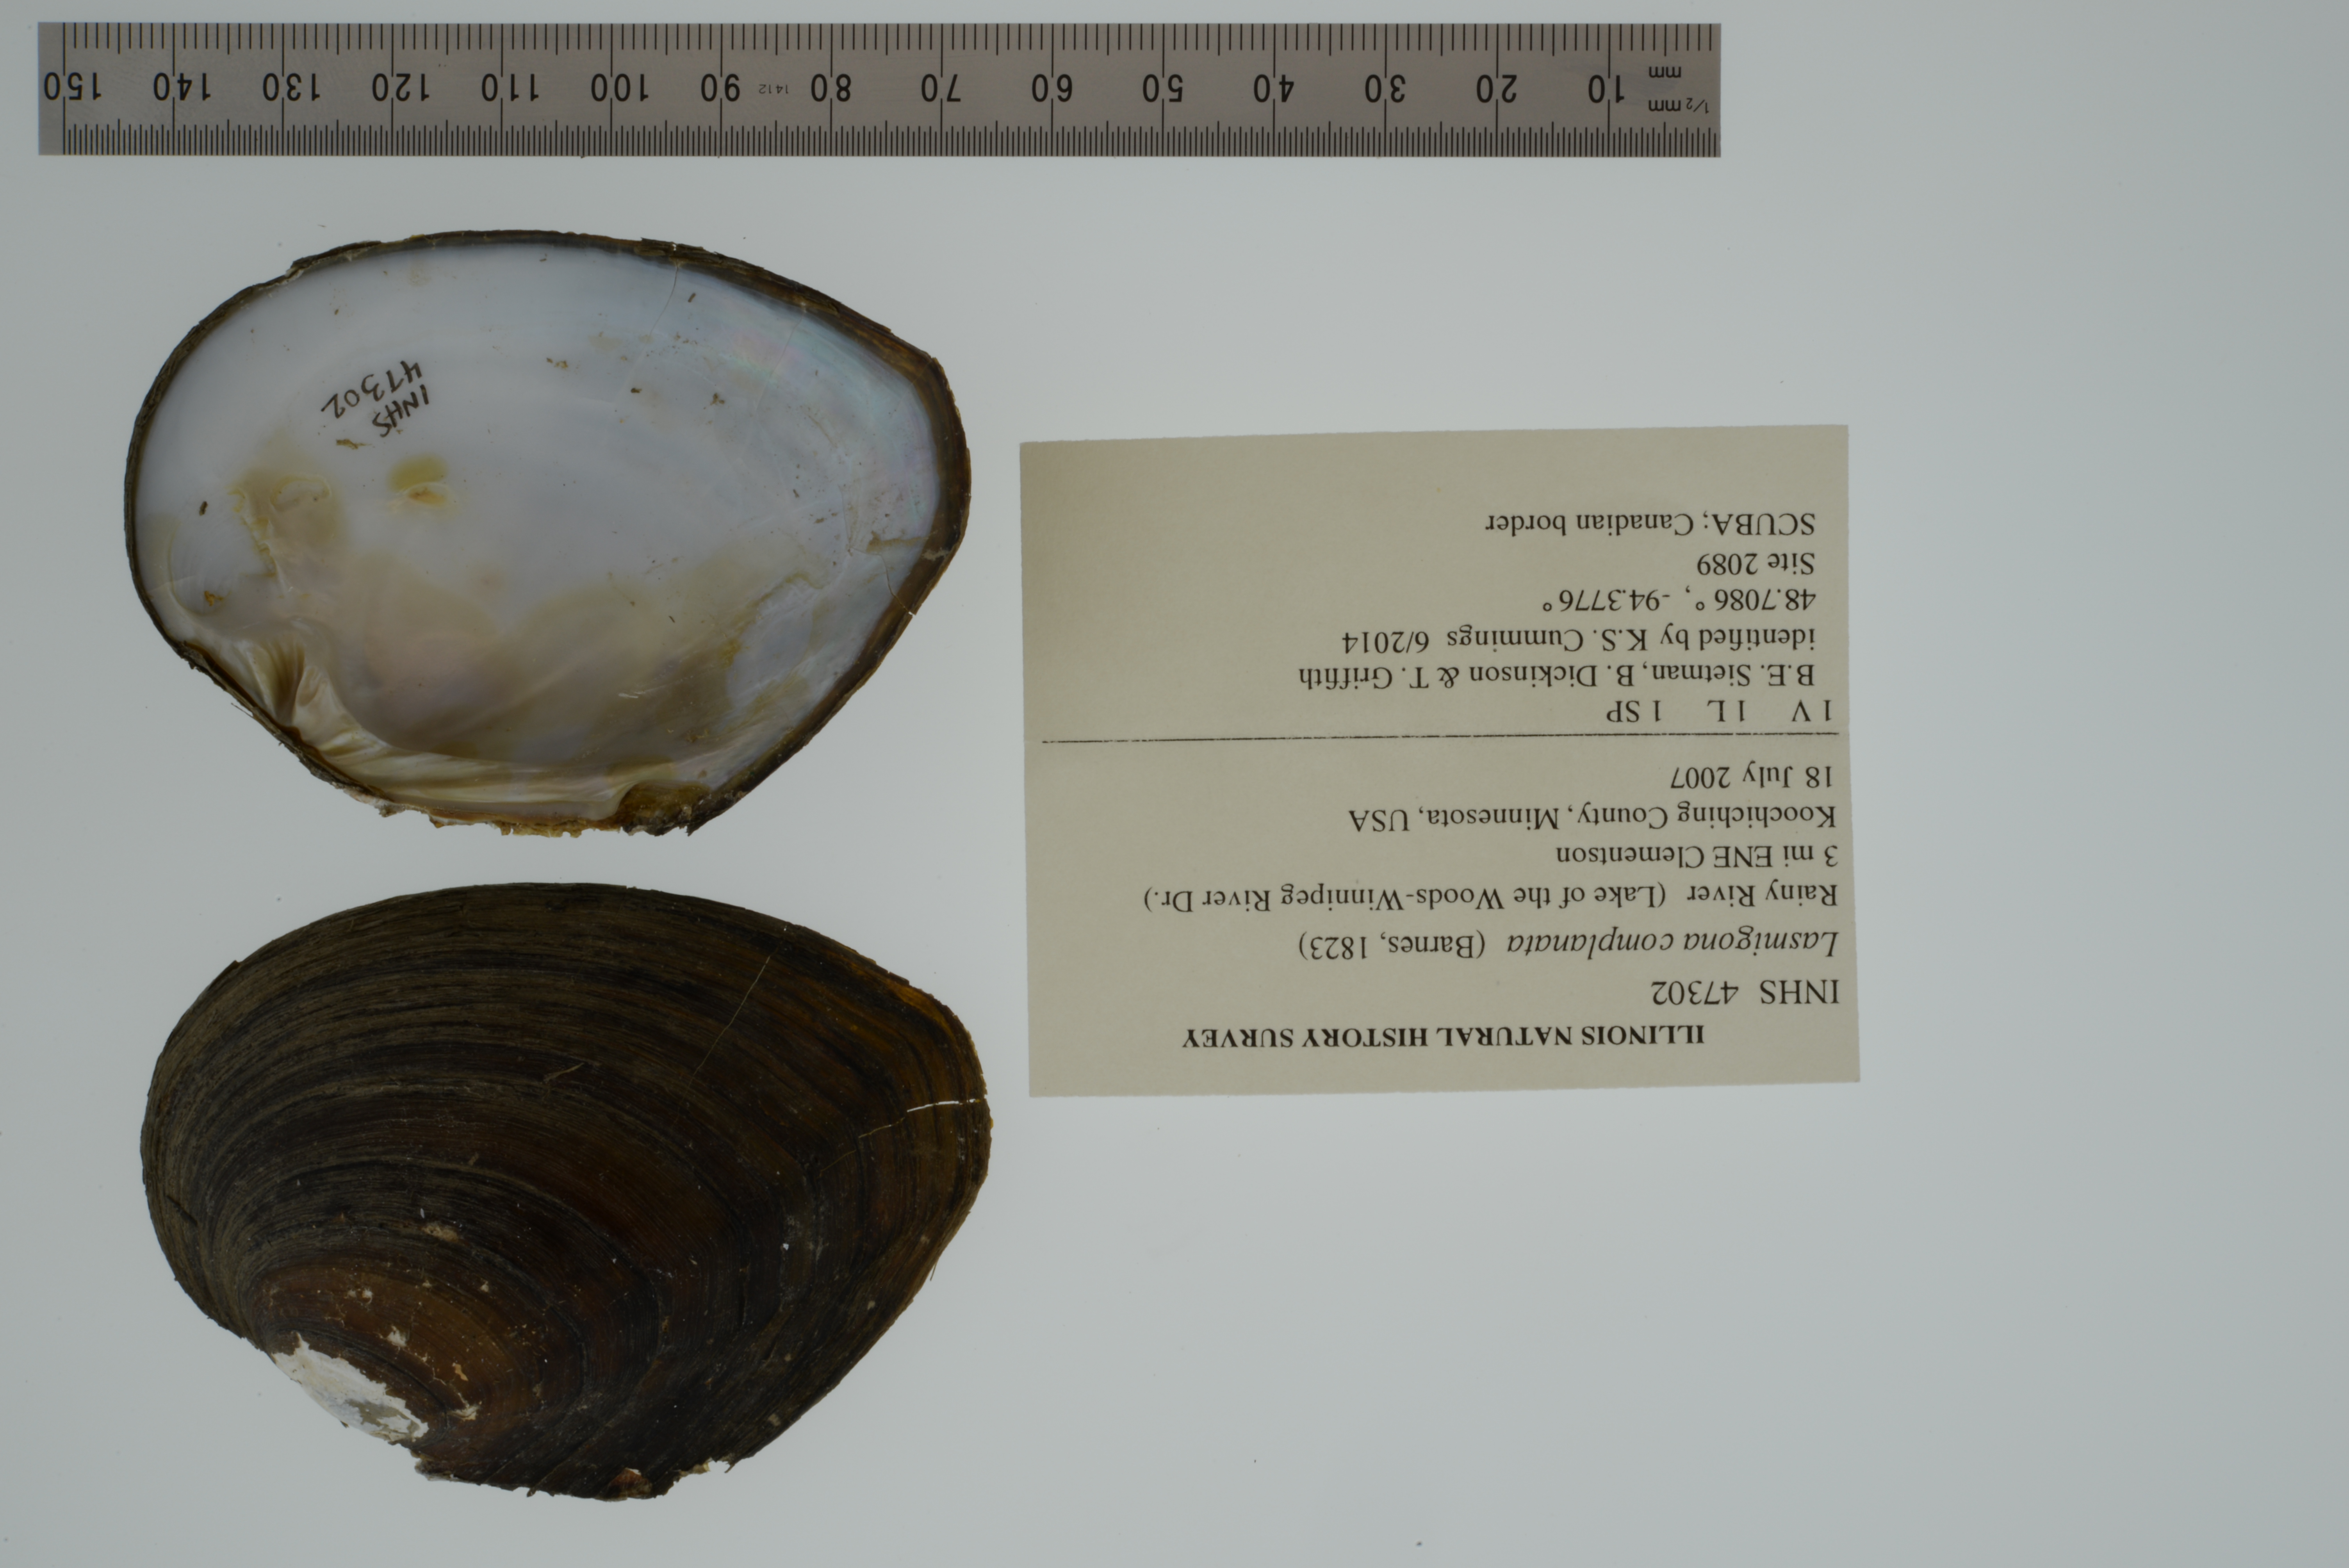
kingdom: Animalia
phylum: Mollusca
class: Bivalvia
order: Unionida
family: Unionidae
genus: Lasmigona
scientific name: Lasmigona complanata
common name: White heelsplitter
